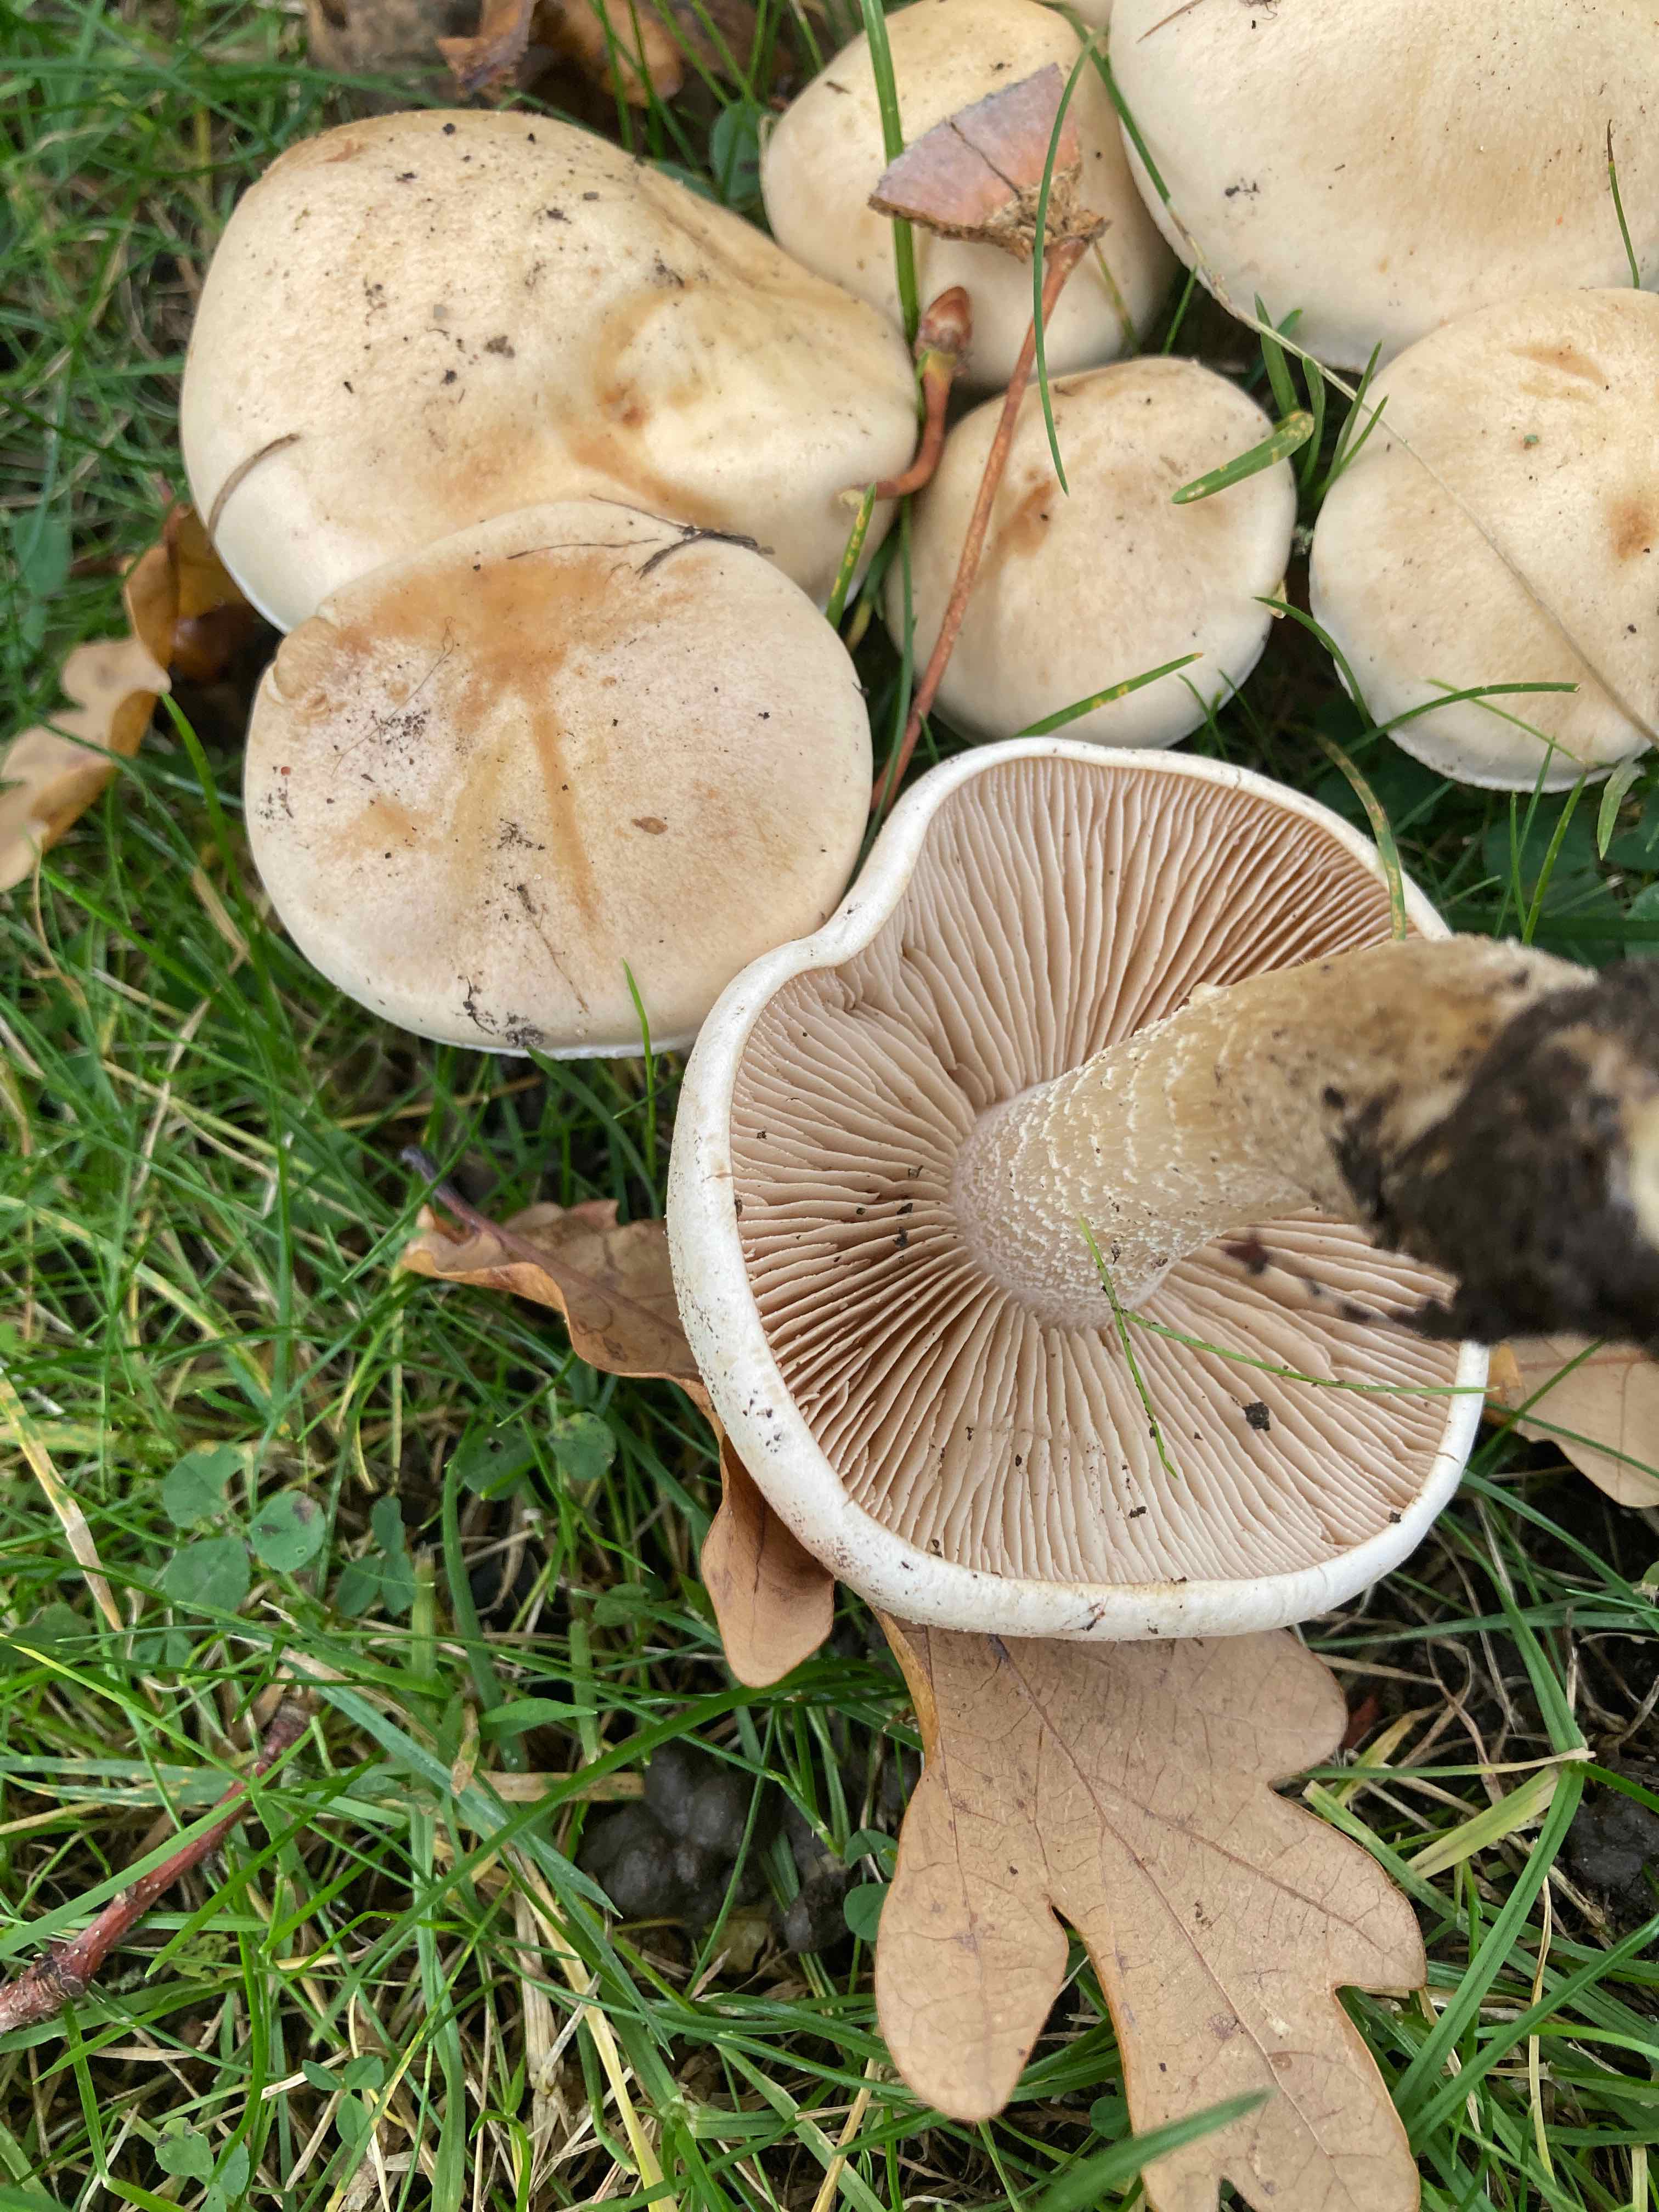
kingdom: Fungi
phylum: Basidiomycota
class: Agaricomycetes
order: Agaricales
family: Hymenogastraceae
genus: Hebeloma
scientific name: Hebeloma eburneum
